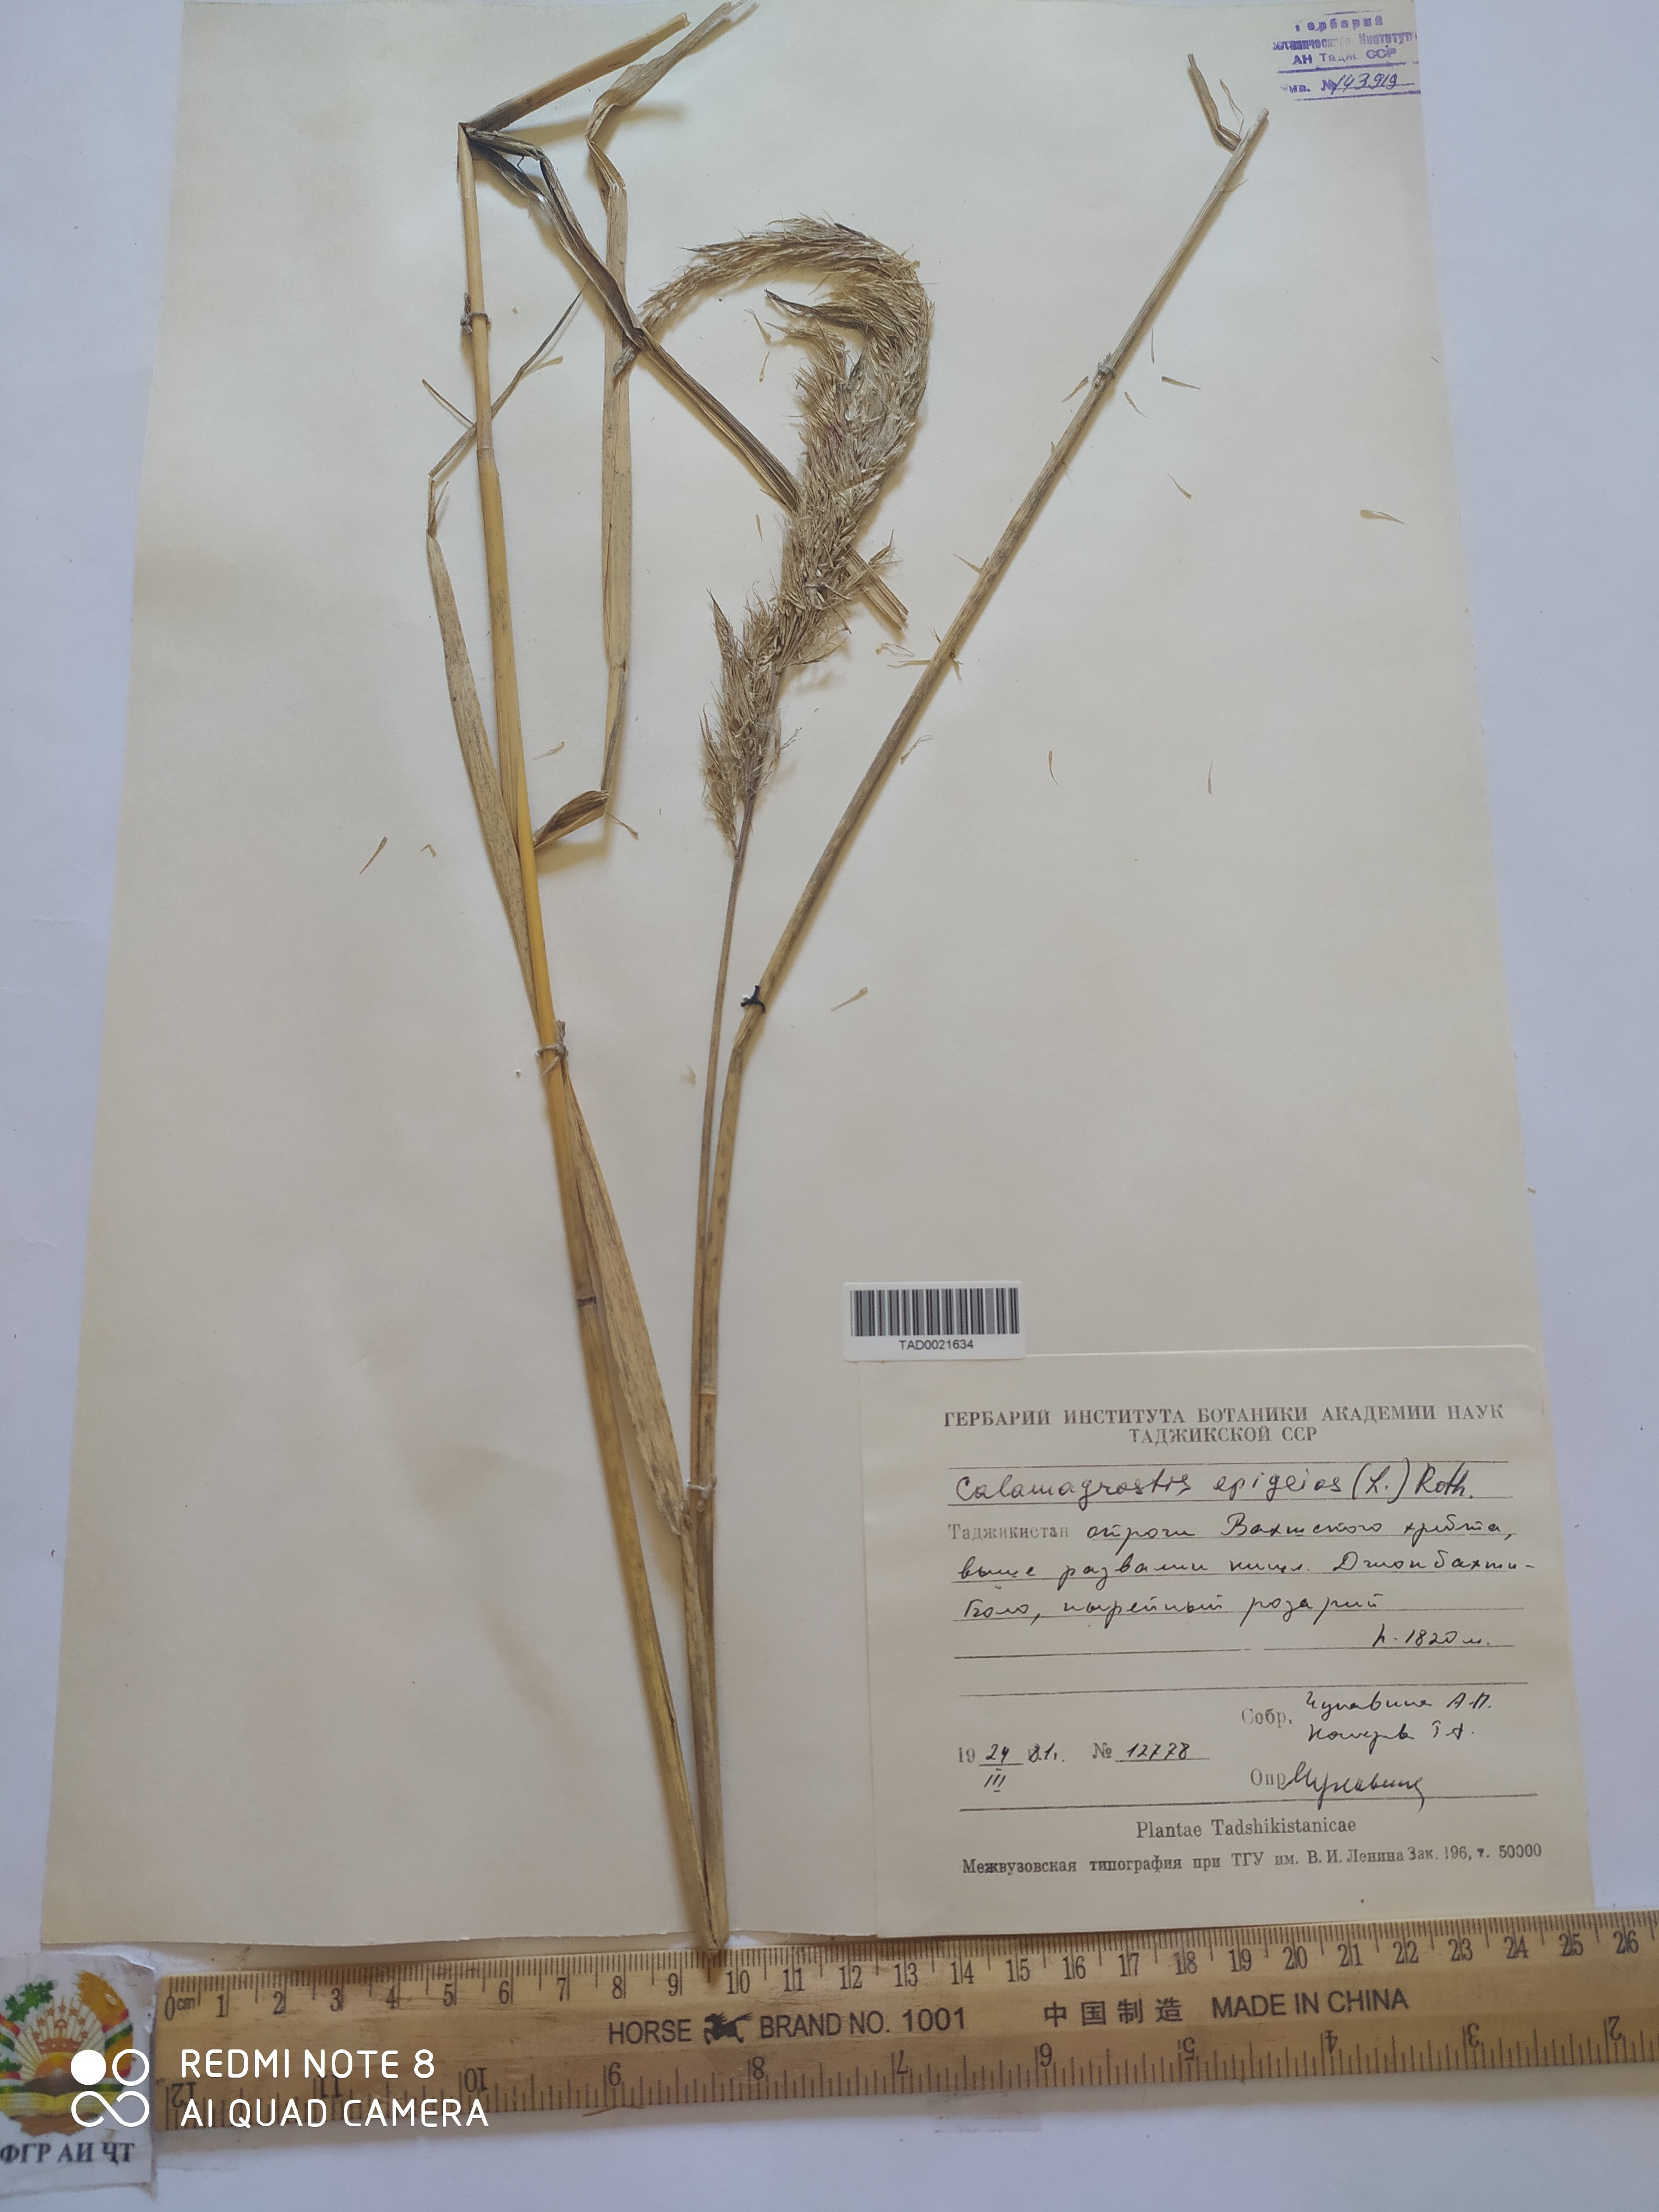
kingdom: Plantae
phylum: Tracheophyta
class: Liliopsida
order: Poales
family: Poaceae
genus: Calamagrostis
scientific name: Calamagrostis epigejos
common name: Wood small-reed
